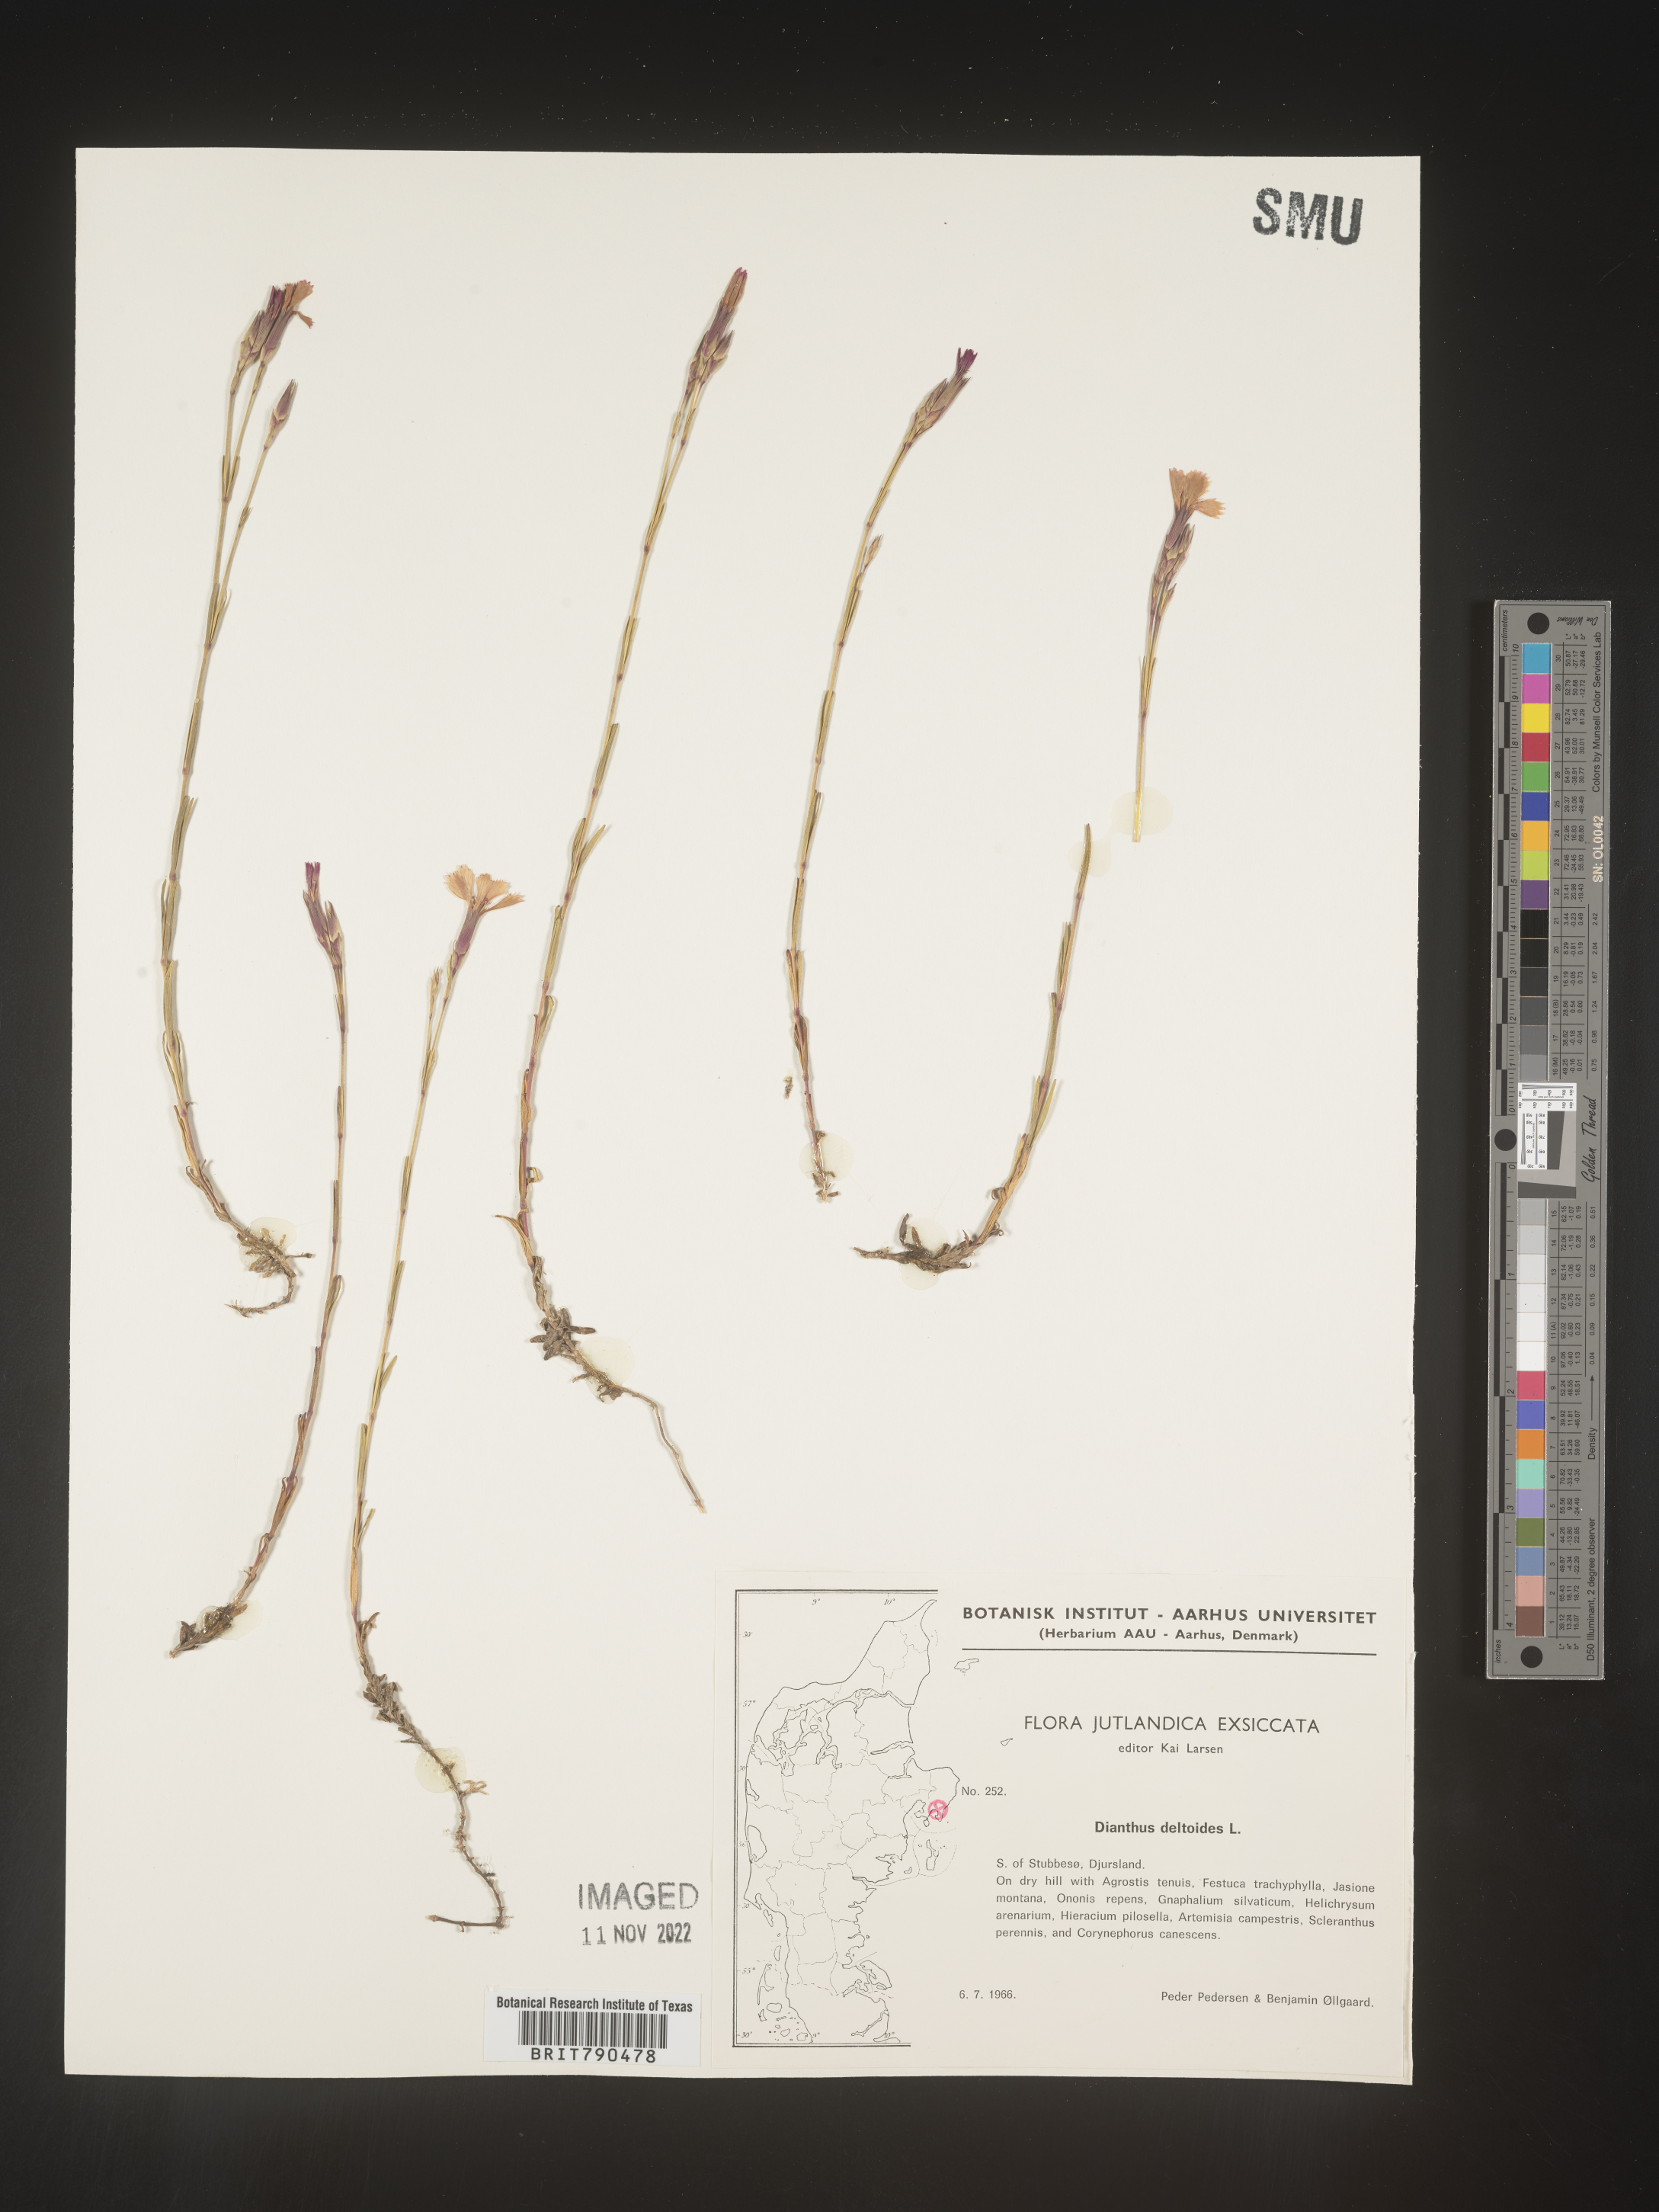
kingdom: Plantae
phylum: Tracheophyta
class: Magnoliopsida
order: Caryophyllales
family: Caryophyllaceae
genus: Dianthus
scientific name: Dianthus deltoides
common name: Maiden pink
